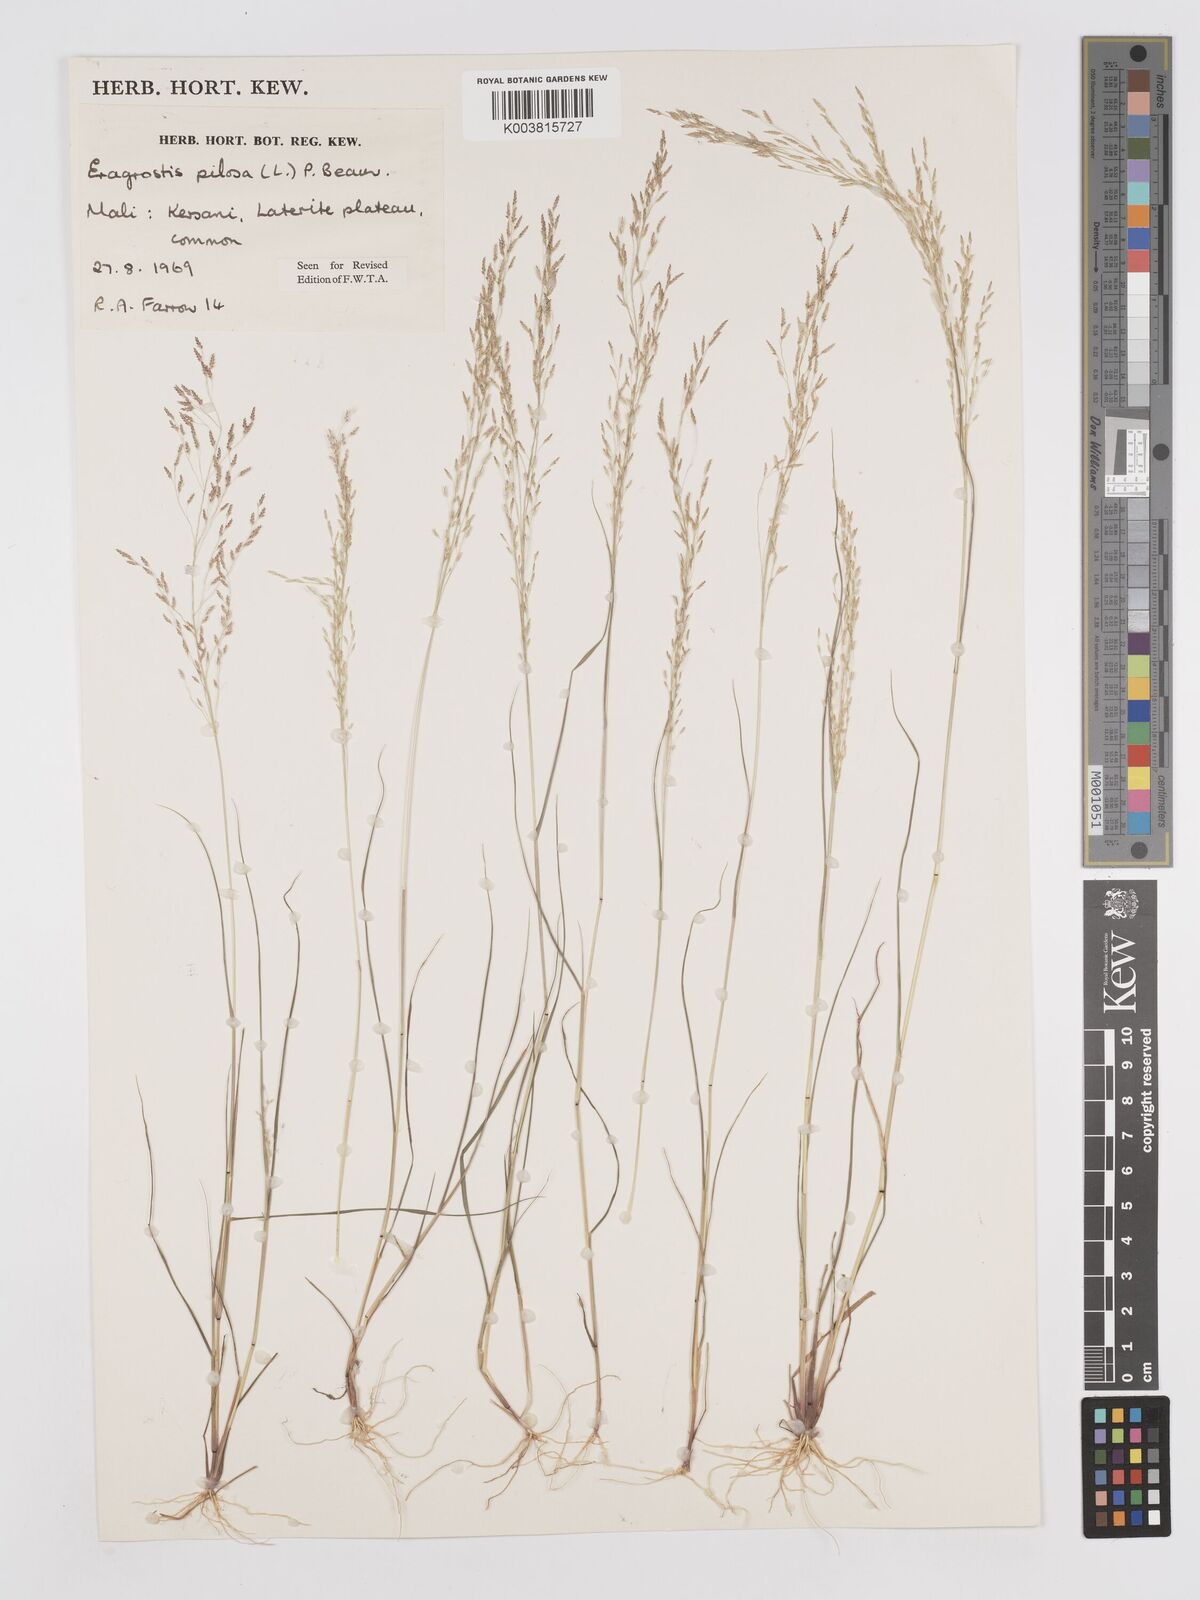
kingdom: Plantae
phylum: Tracheophyta
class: Liliopsida
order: Poales
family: Poaceae
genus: Eragrostis
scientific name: Eragrostis pilosa
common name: Indian lovegrass
